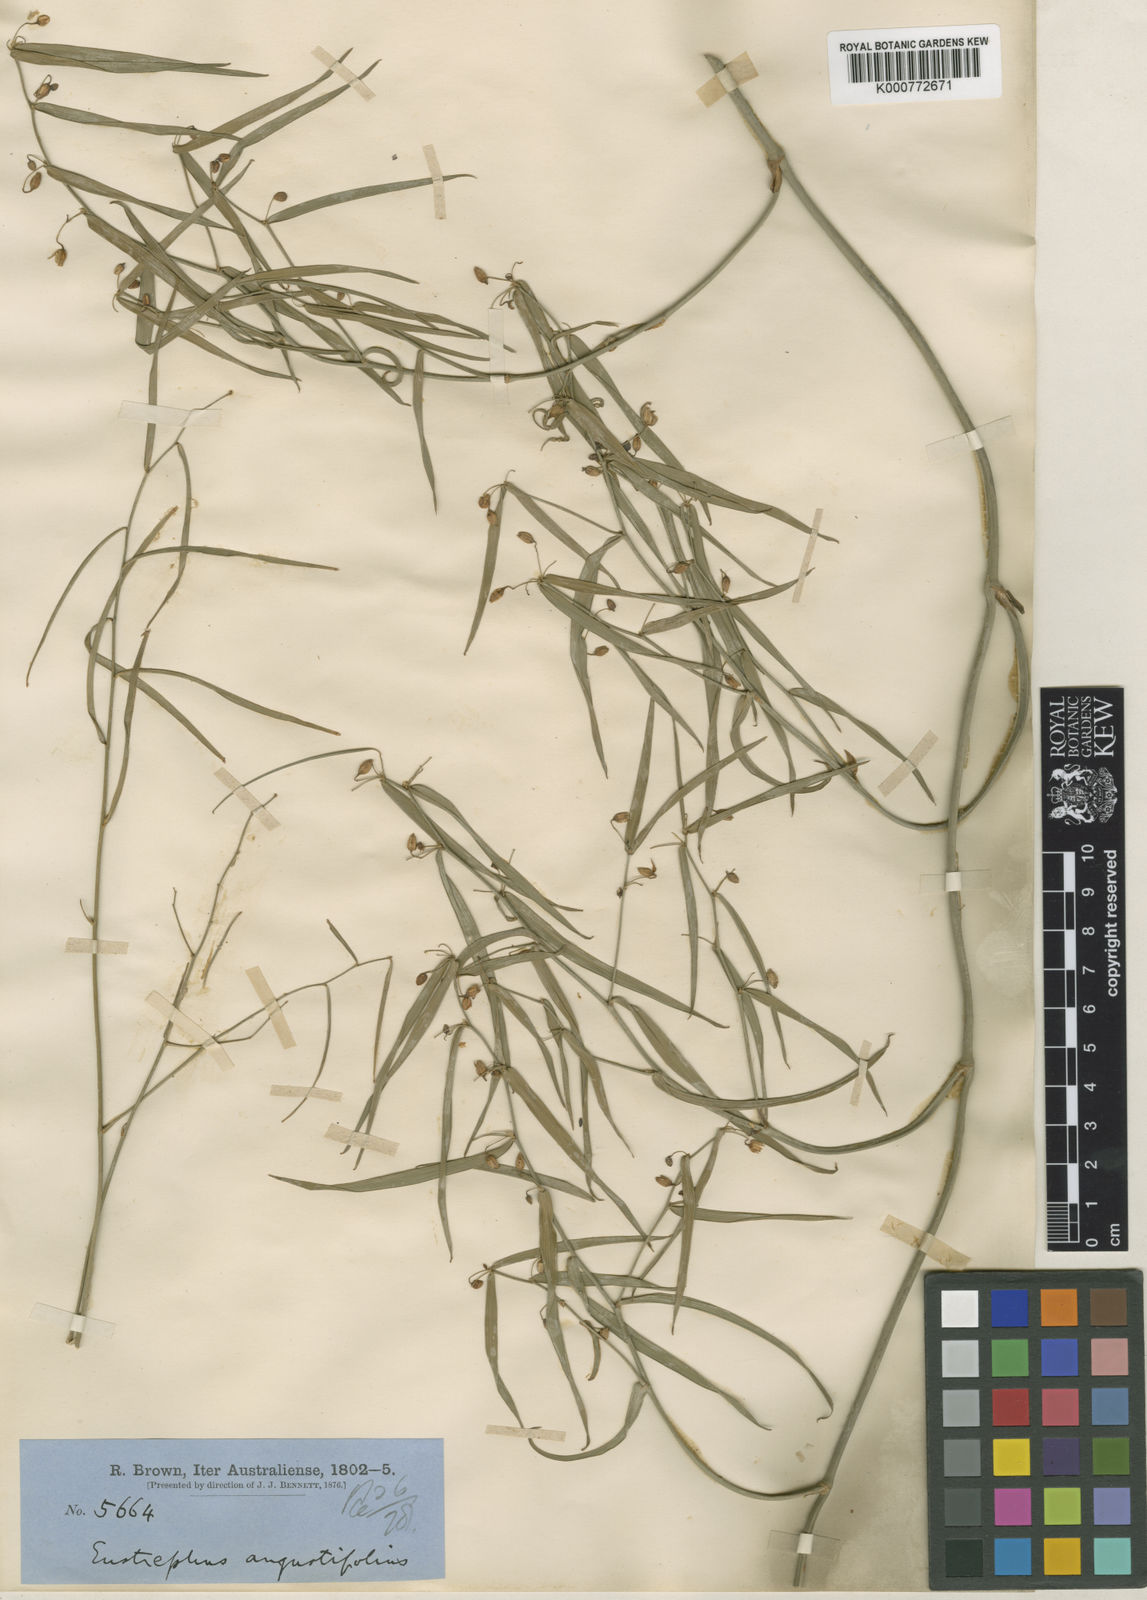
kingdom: Plantae
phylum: Tracheophyta
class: Liliopsida
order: Asparagales
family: Asparagaceae
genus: Eustrephus
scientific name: Eustrephus latifolius
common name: Orangevine
